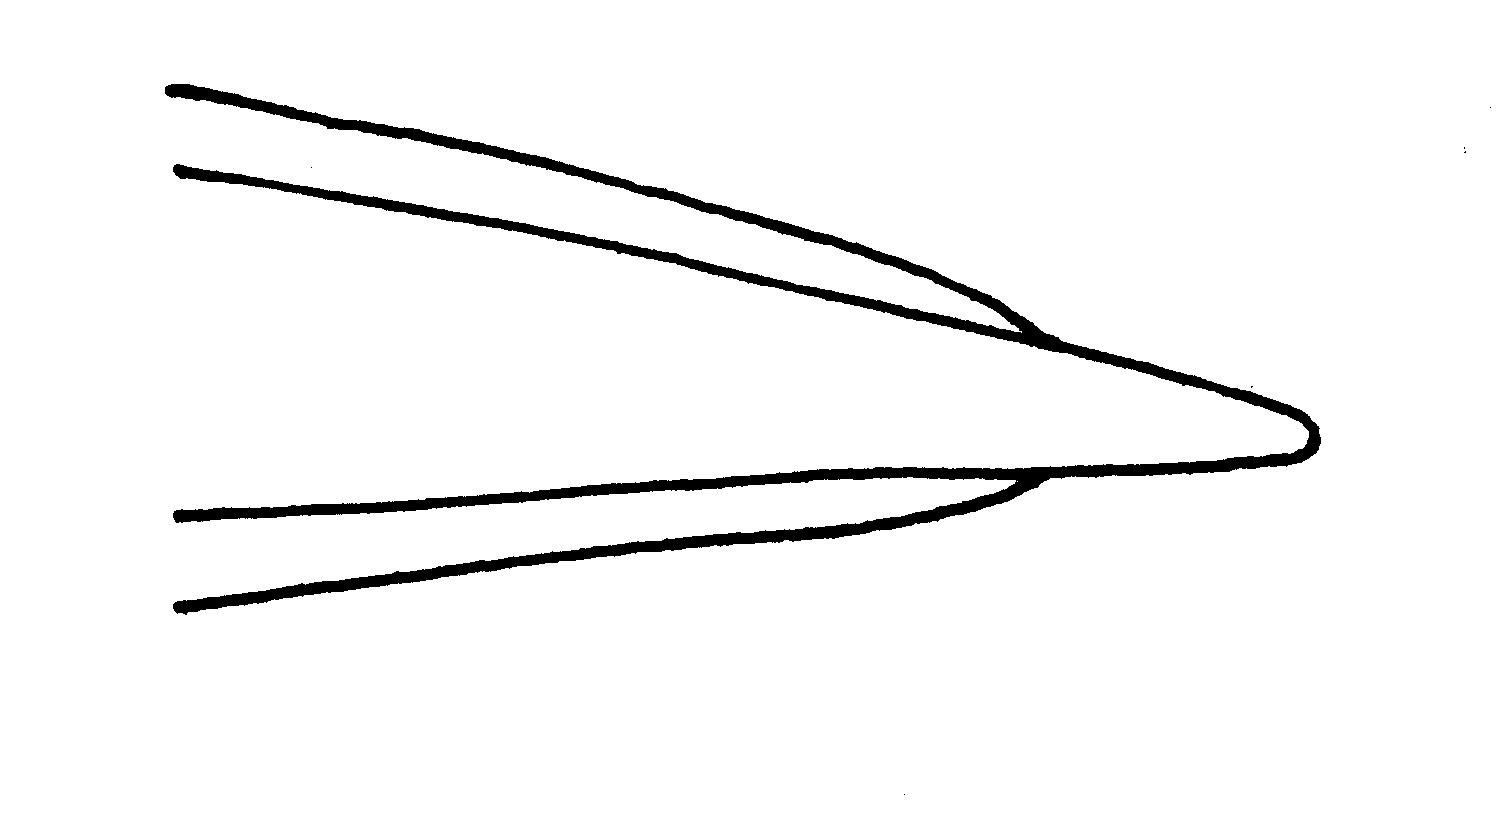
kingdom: Animalia
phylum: Chordata
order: Anguilliformes
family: Ophichthidae
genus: Lamnostoma
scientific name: Lamnostoma orientale
